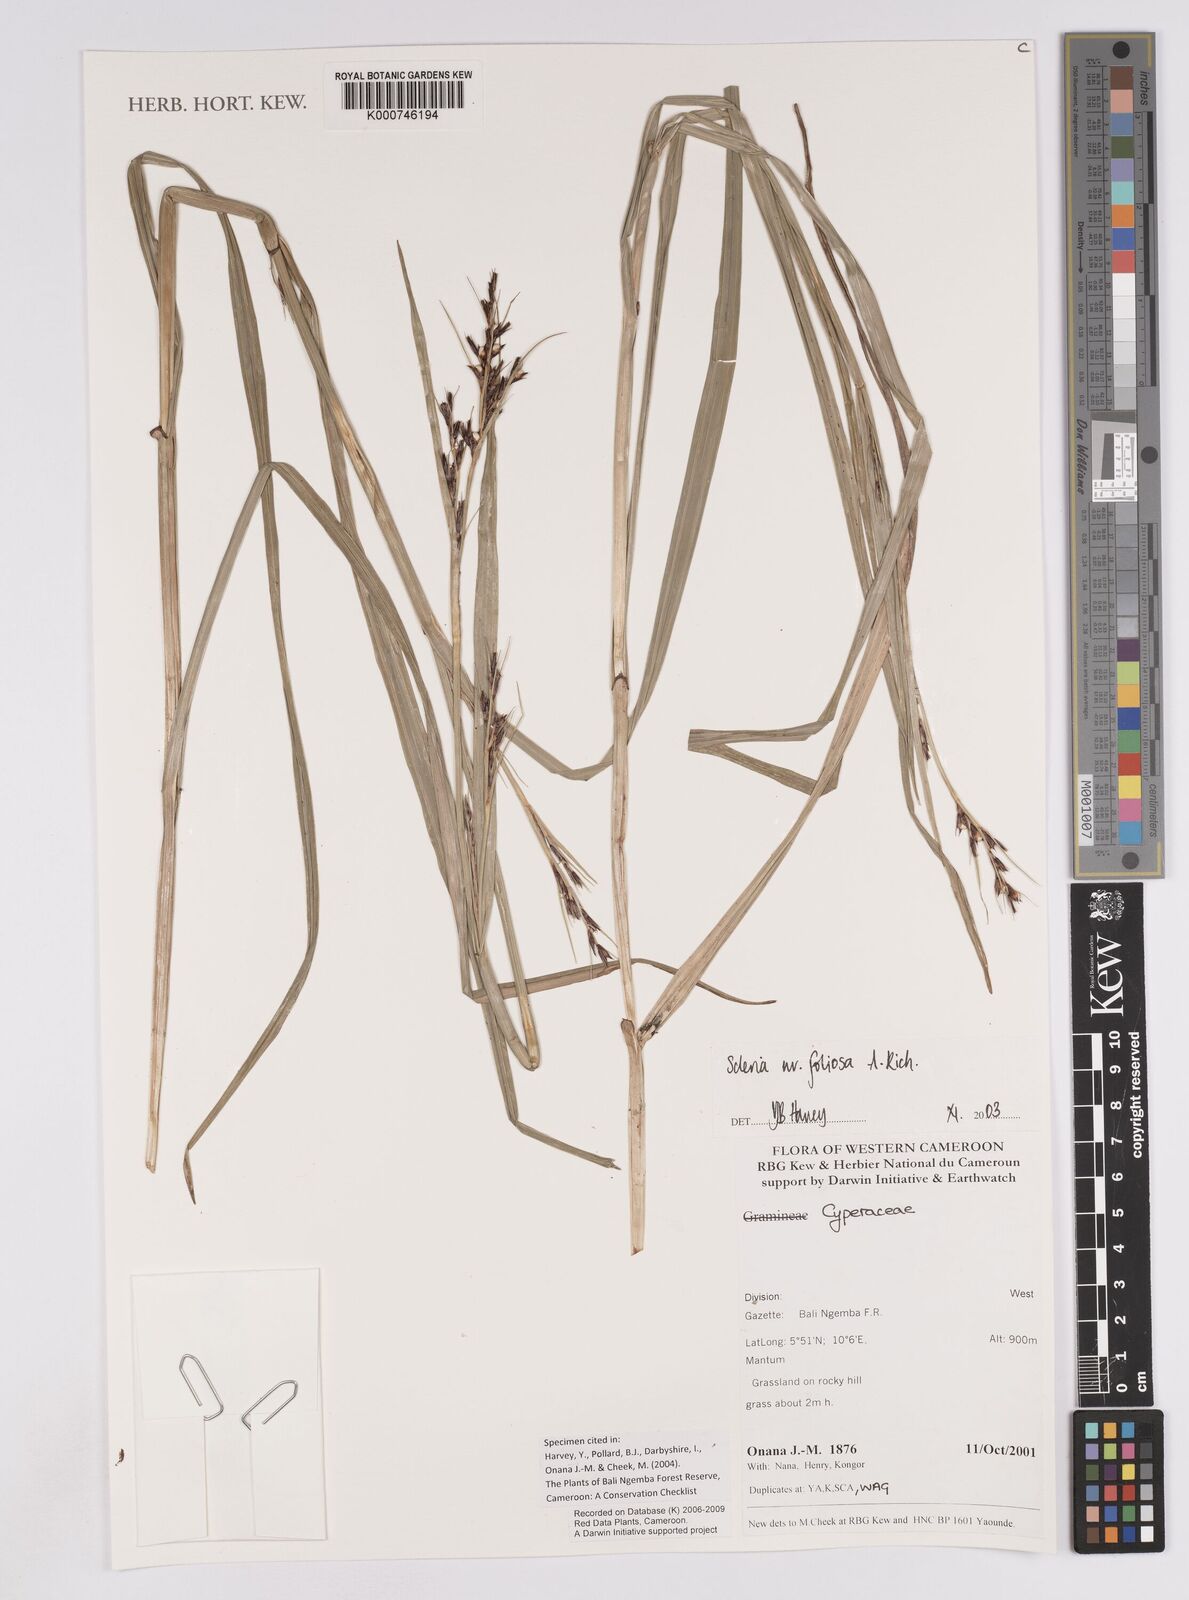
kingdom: Plantae
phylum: Tracheophyta
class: Liliopsida
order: Poales
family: Cyperaceae
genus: Scleria
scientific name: Scleria foliosa
